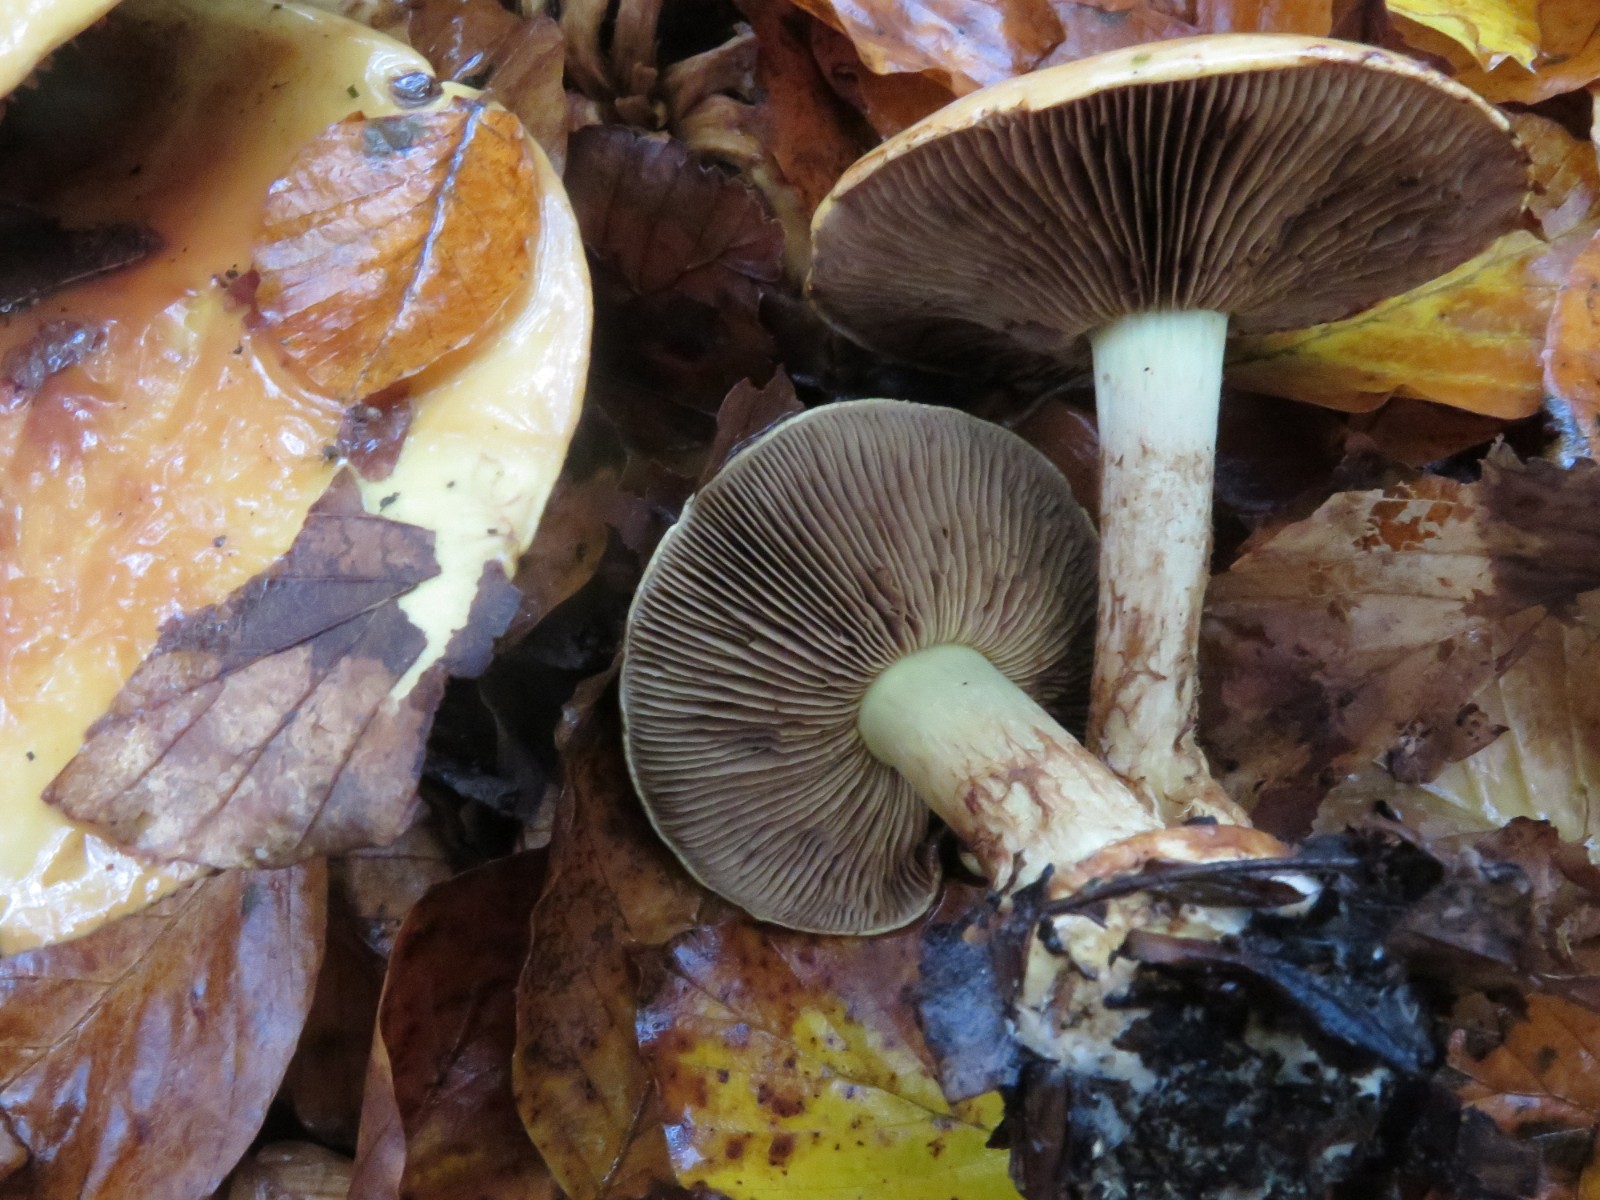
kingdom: Fungi
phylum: Basidiomycota
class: Agaricomycetes
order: Agaricales
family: Cortinariaceae
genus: Calonarius
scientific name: Calonarius elegantissimus
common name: orangegylden slørhat
